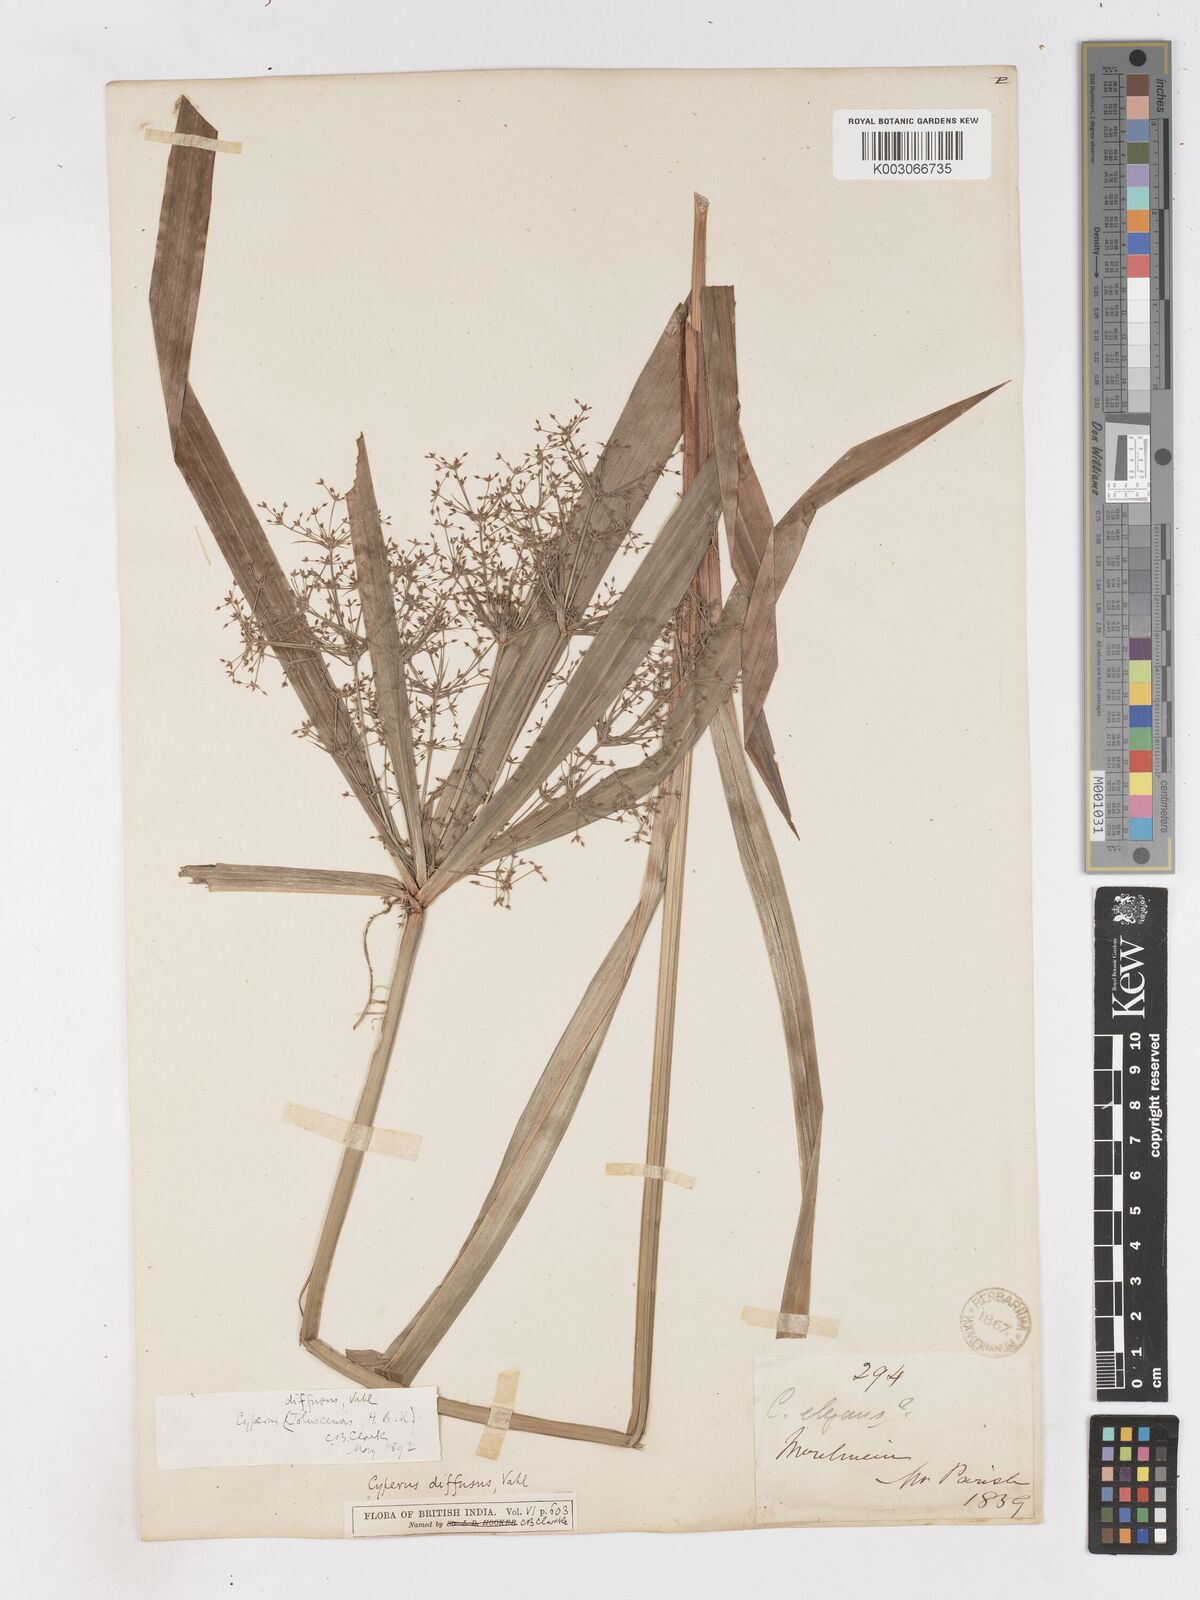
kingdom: Plantae
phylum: Tracheophyta
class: Liliopsida
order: Poales
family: Cyperaceae
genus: Cyperus
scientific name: Cyperus diffusus
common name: Dwarf umbrella grass
